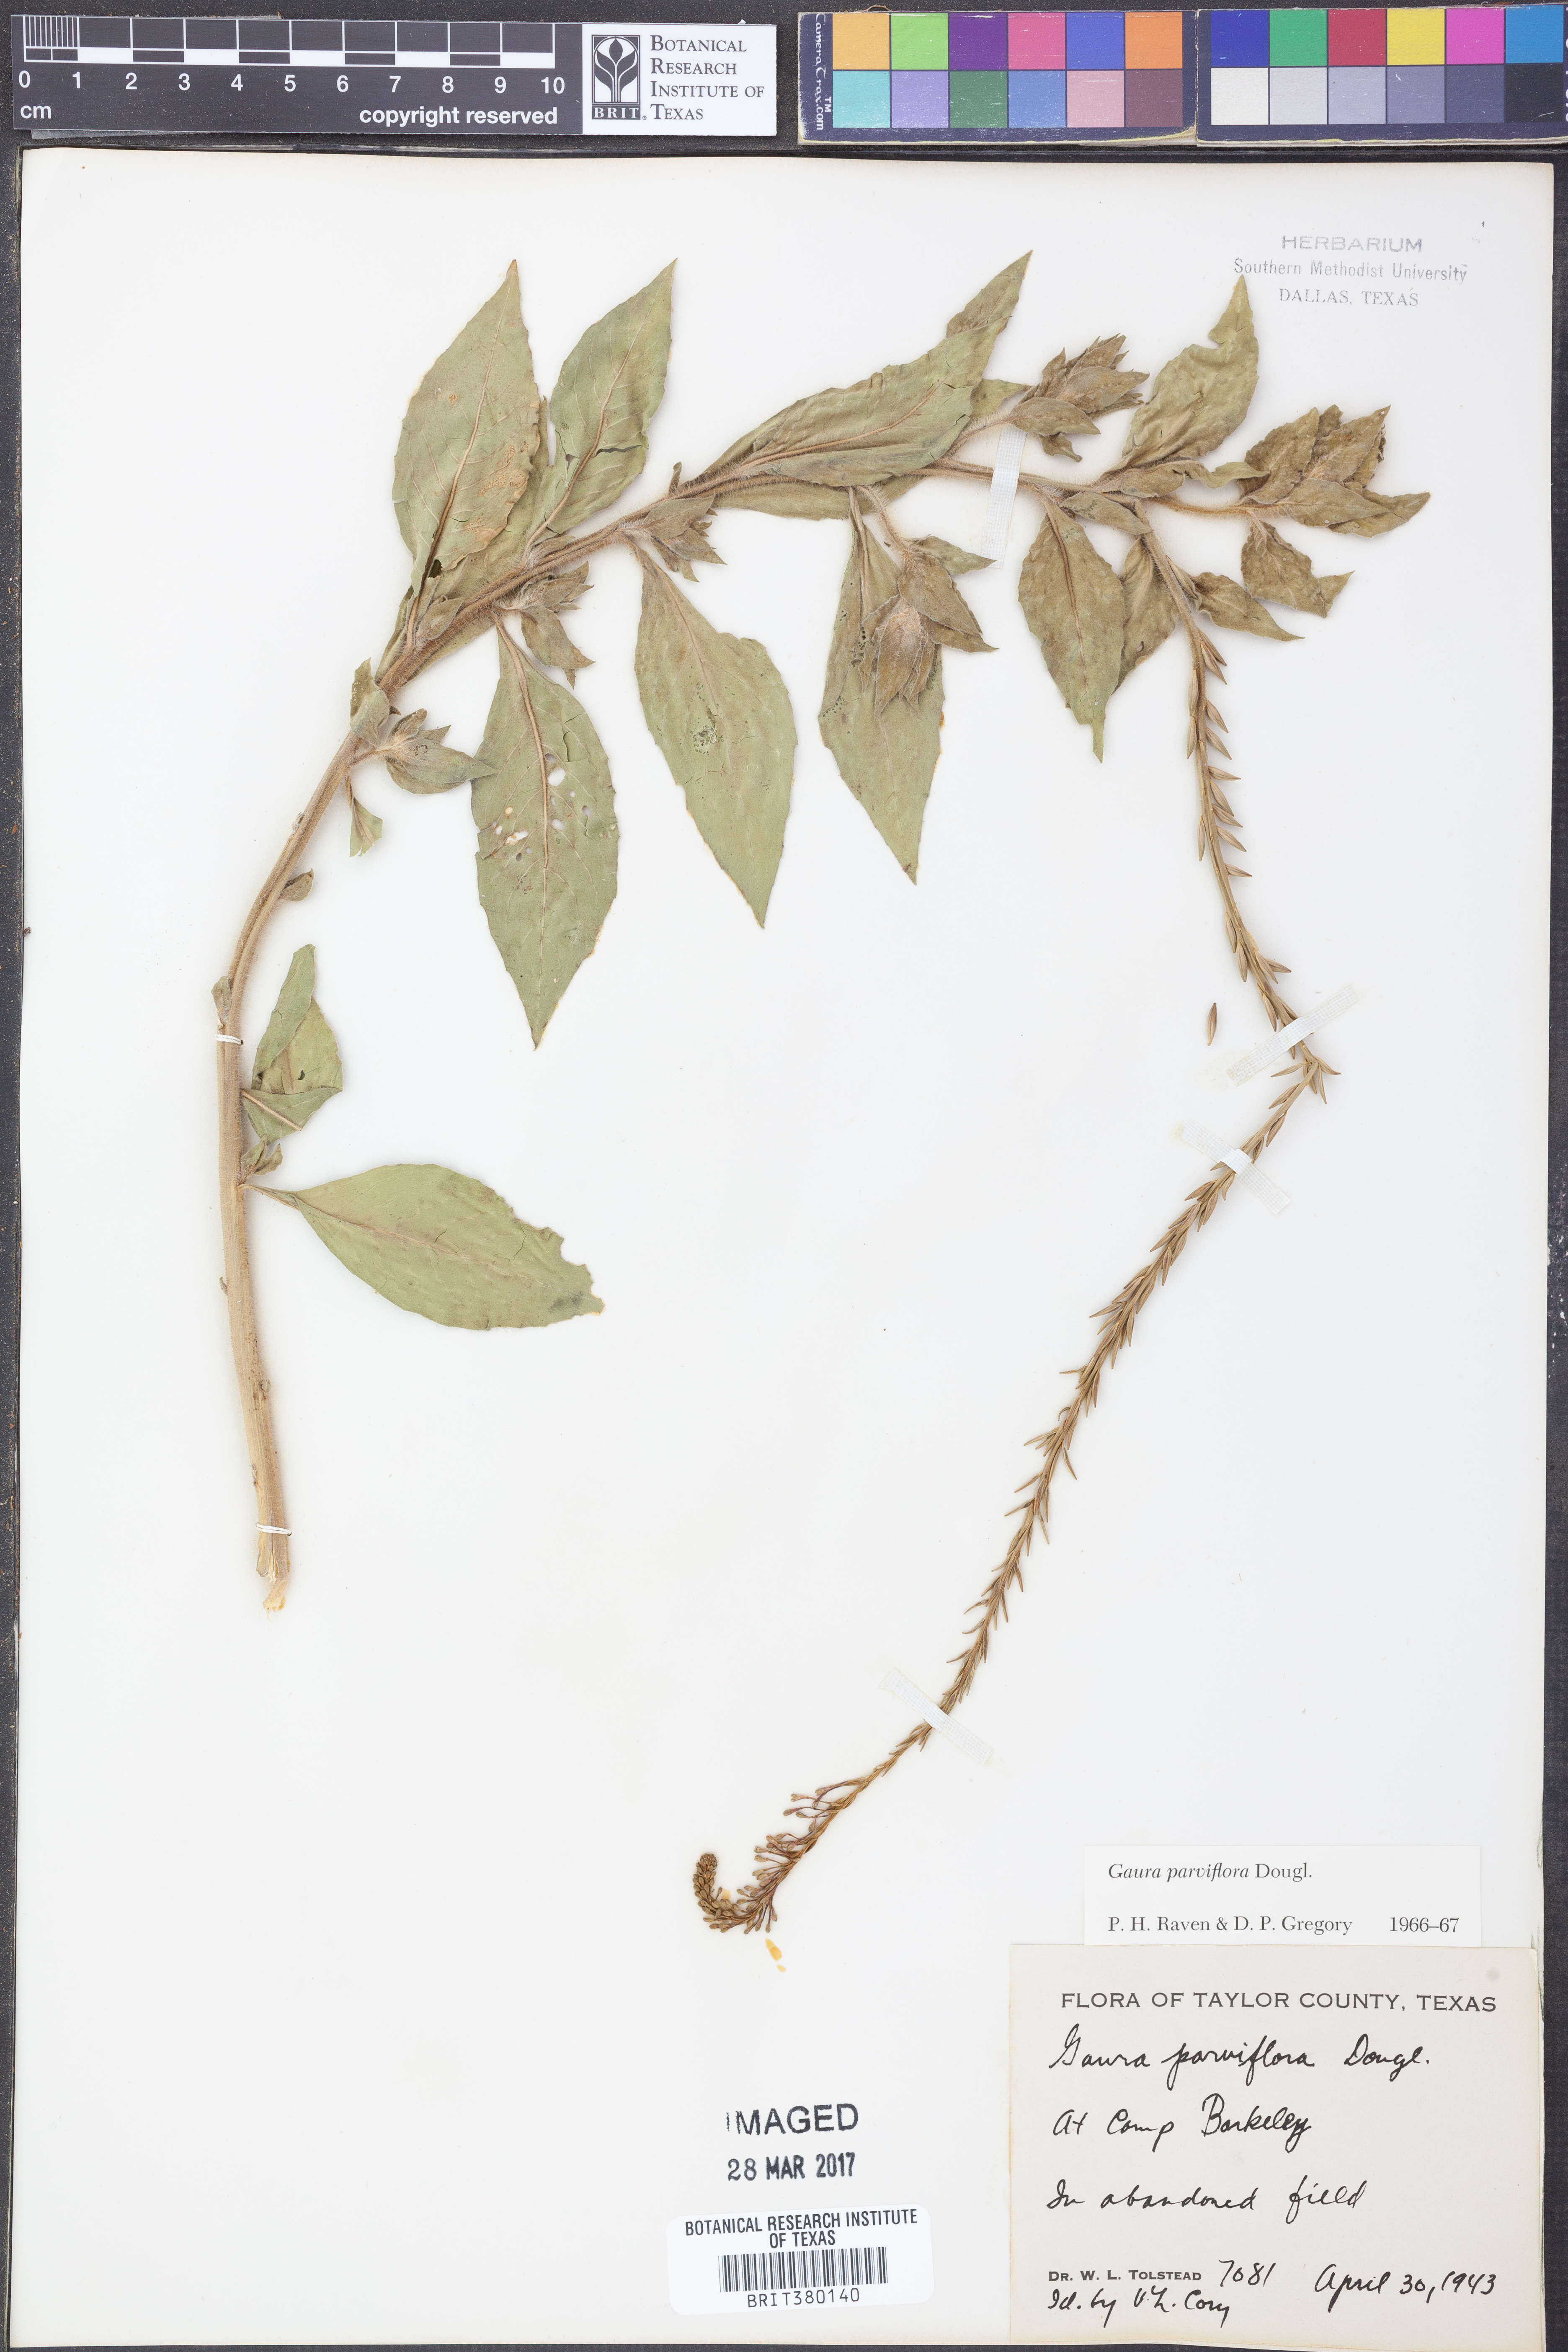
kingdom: Plantae
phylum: Tracheophyta
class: Magnoliopsida
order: Myrtales
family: Onagraceae
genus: Oenothera
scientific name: Oenothera curtiflora
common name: Velvetweed
